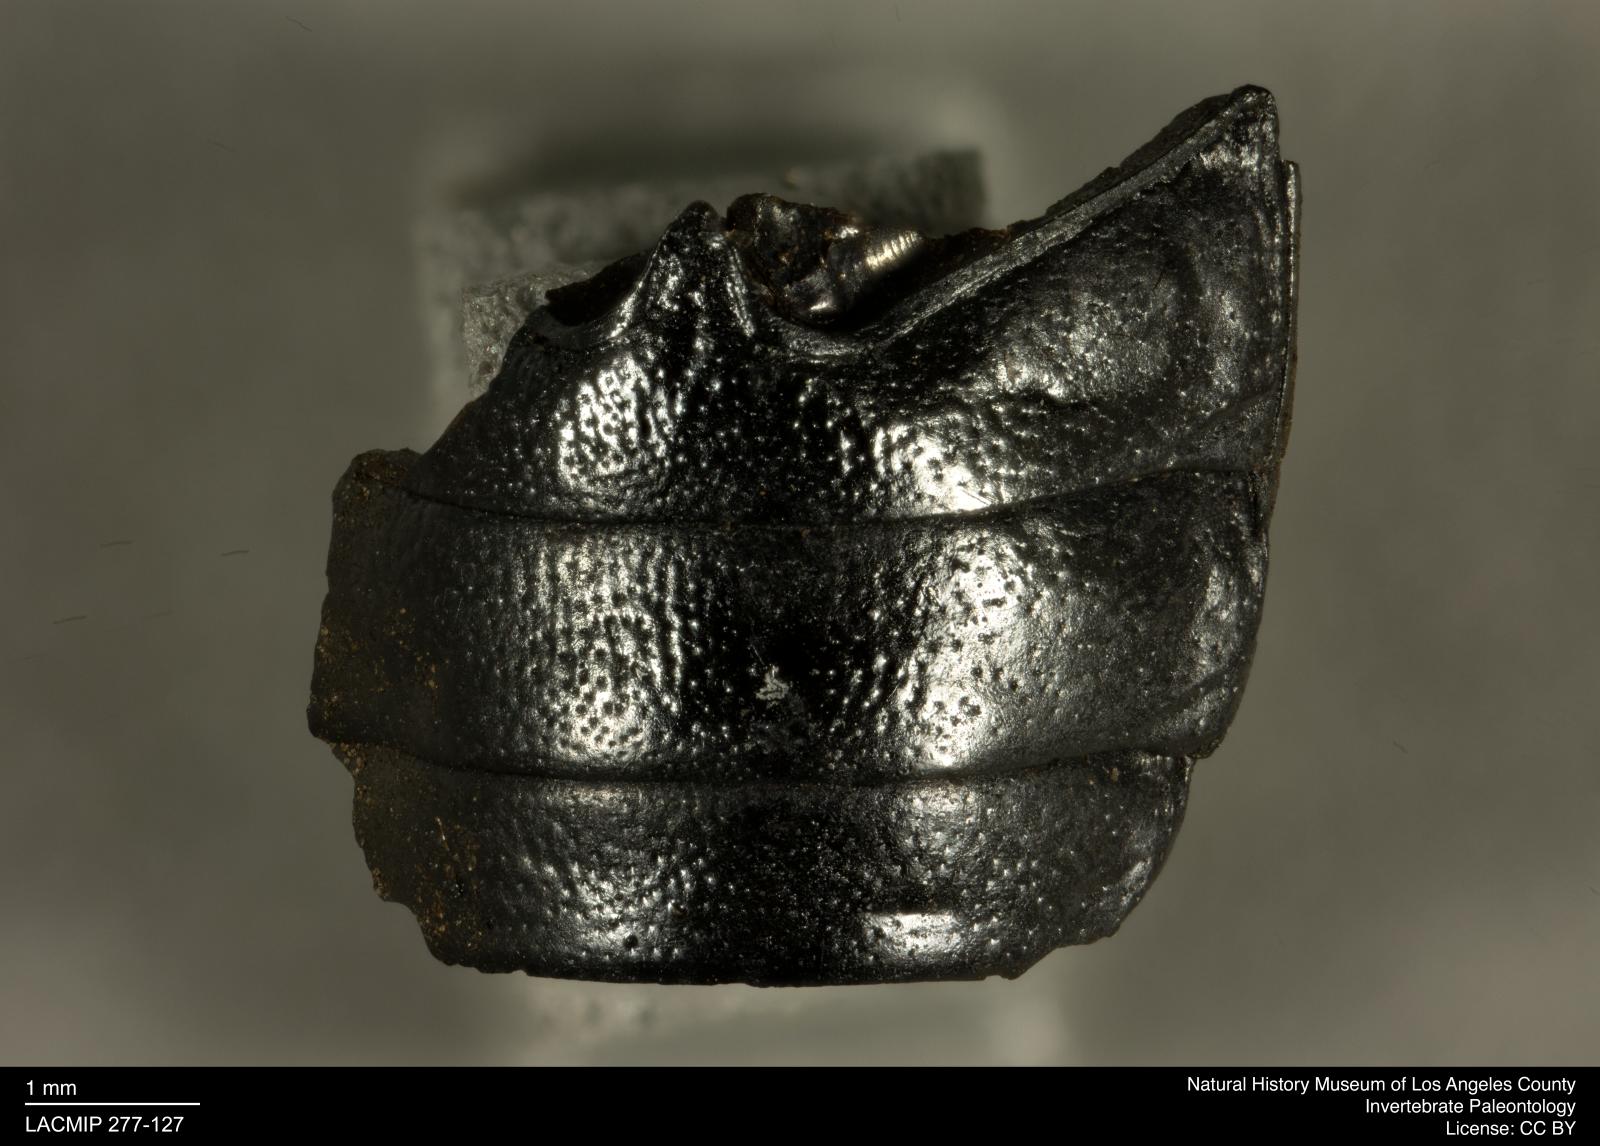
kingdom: Animalia
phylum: Arthropoda
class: Insecta
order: Coleoptera
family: Tenebrionidae
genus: Coniontis
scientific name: Coniontis abdominalis
